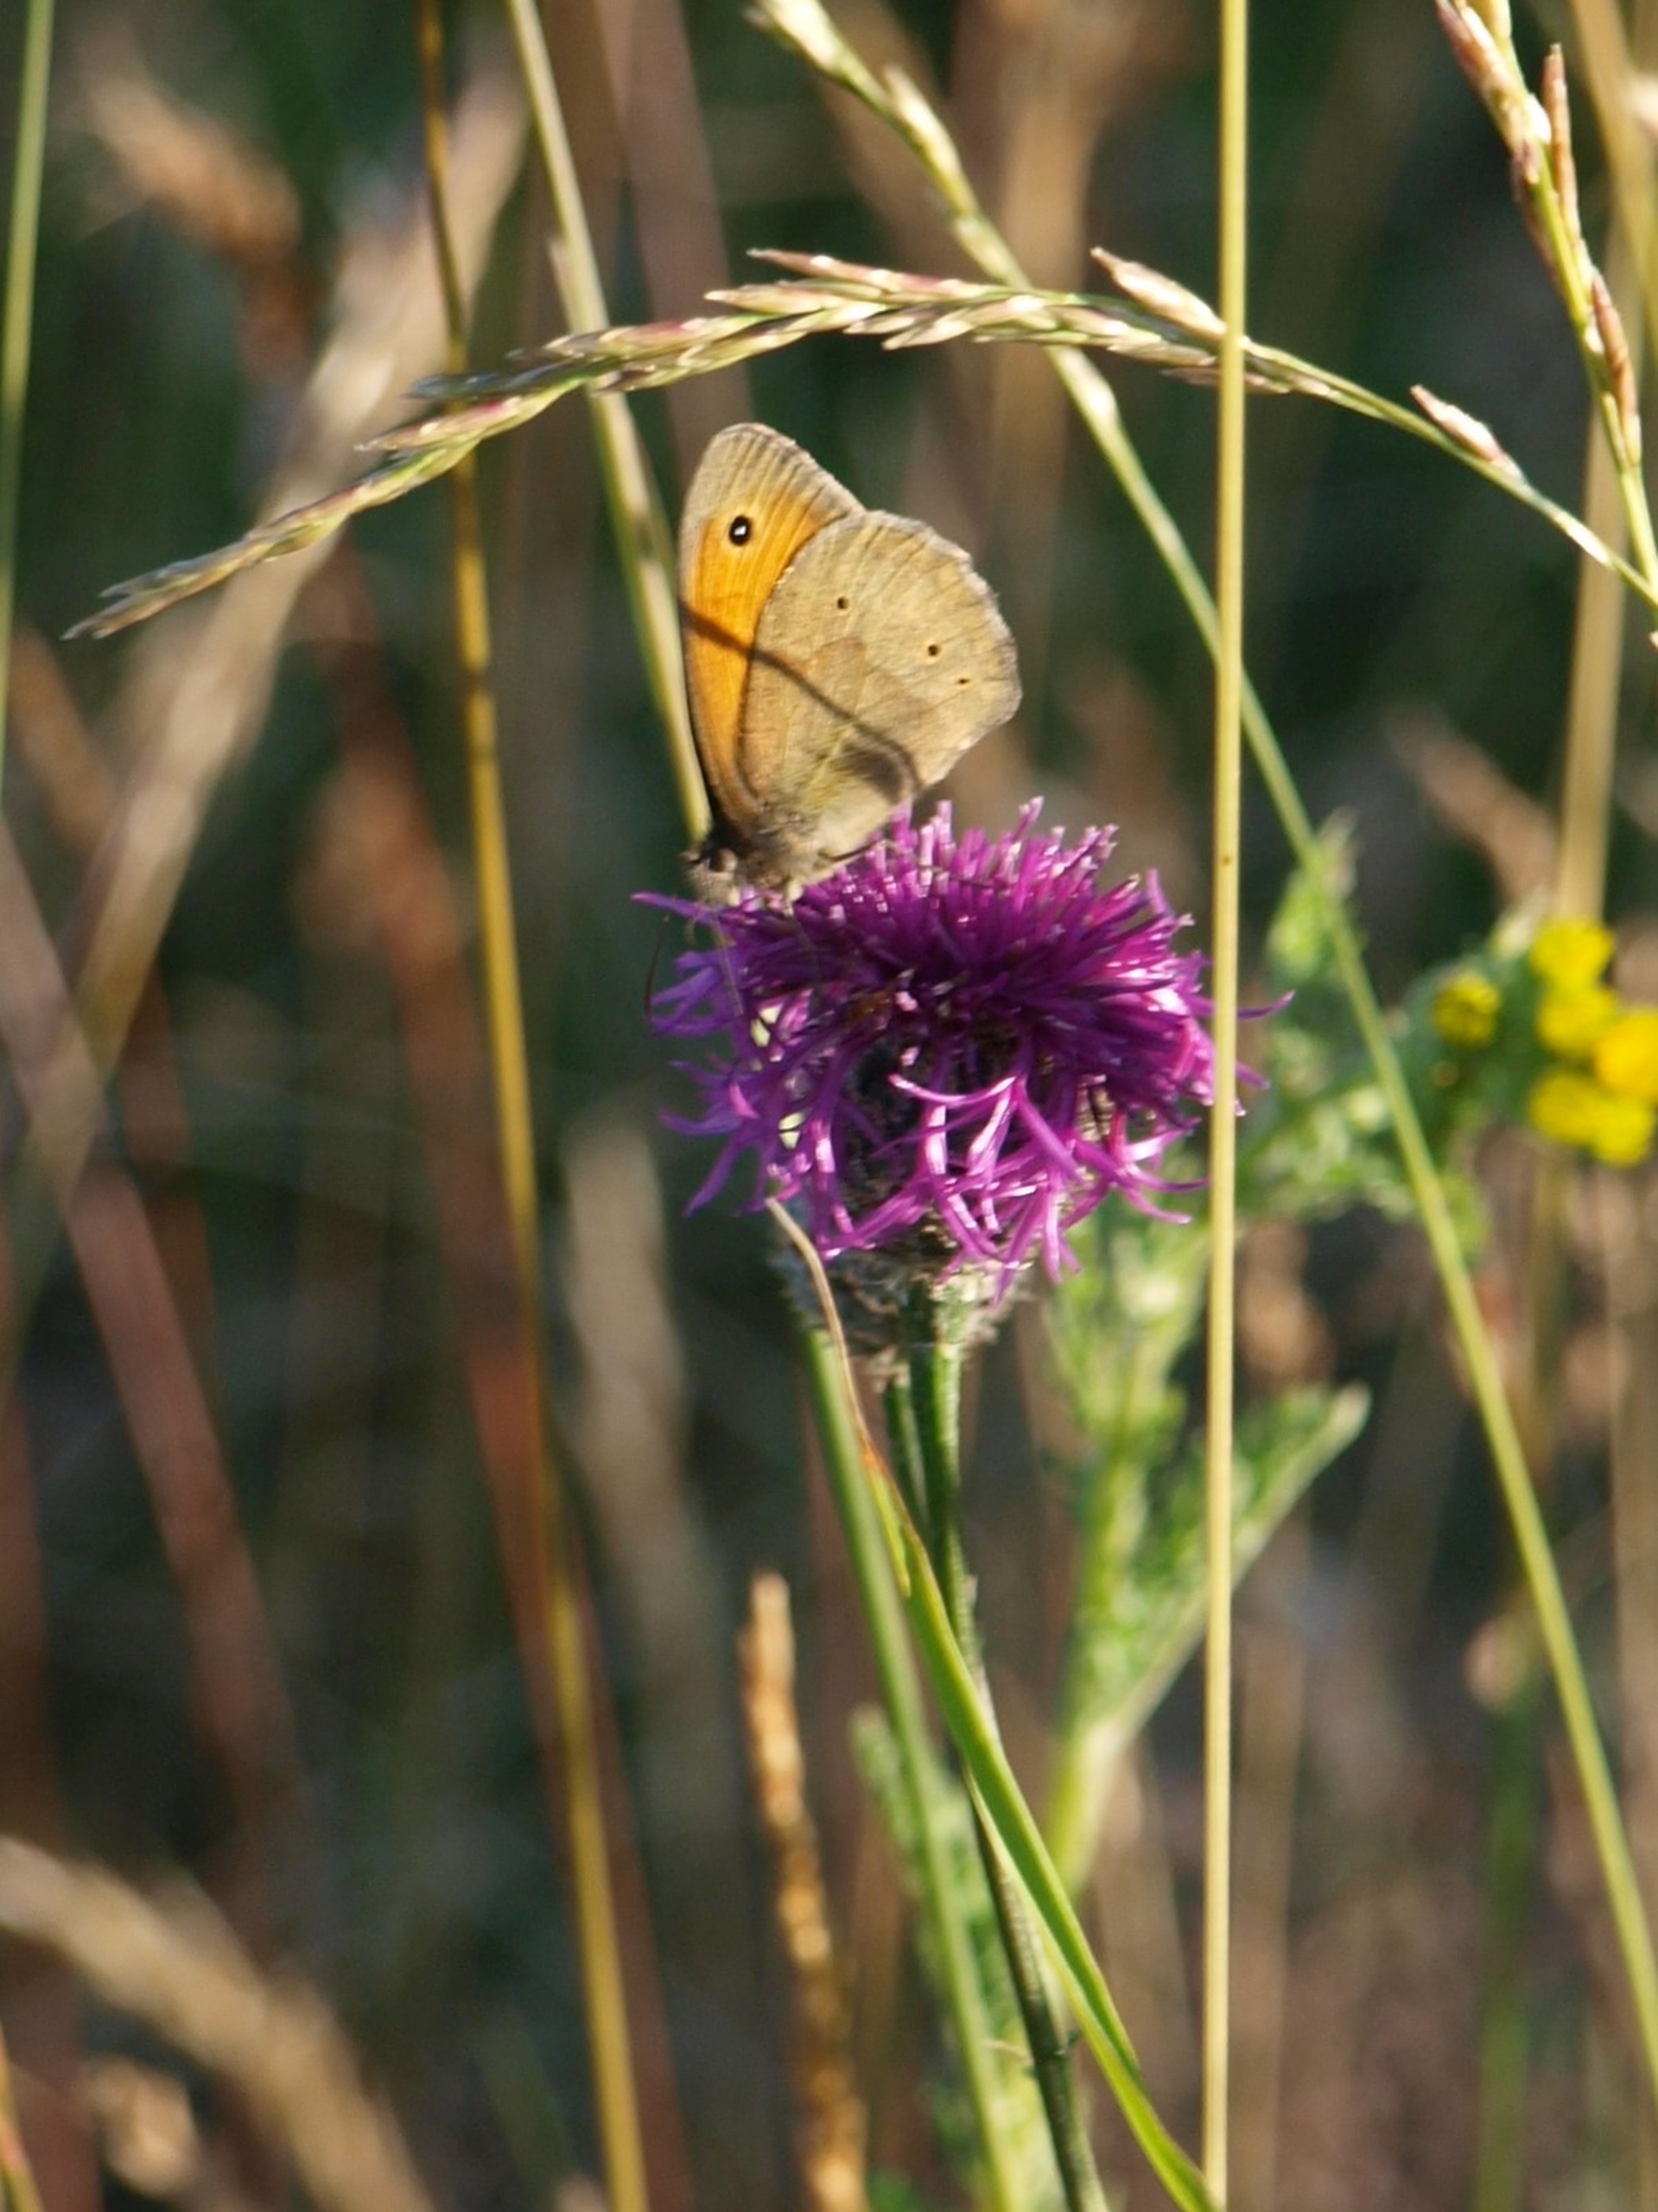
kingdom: Animalia
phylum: Arthropoda
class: Insecta
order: Lepidoptera
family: Nymphalidae
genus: Maniola
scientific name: Maniola jurtina
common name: Græsrandøje
